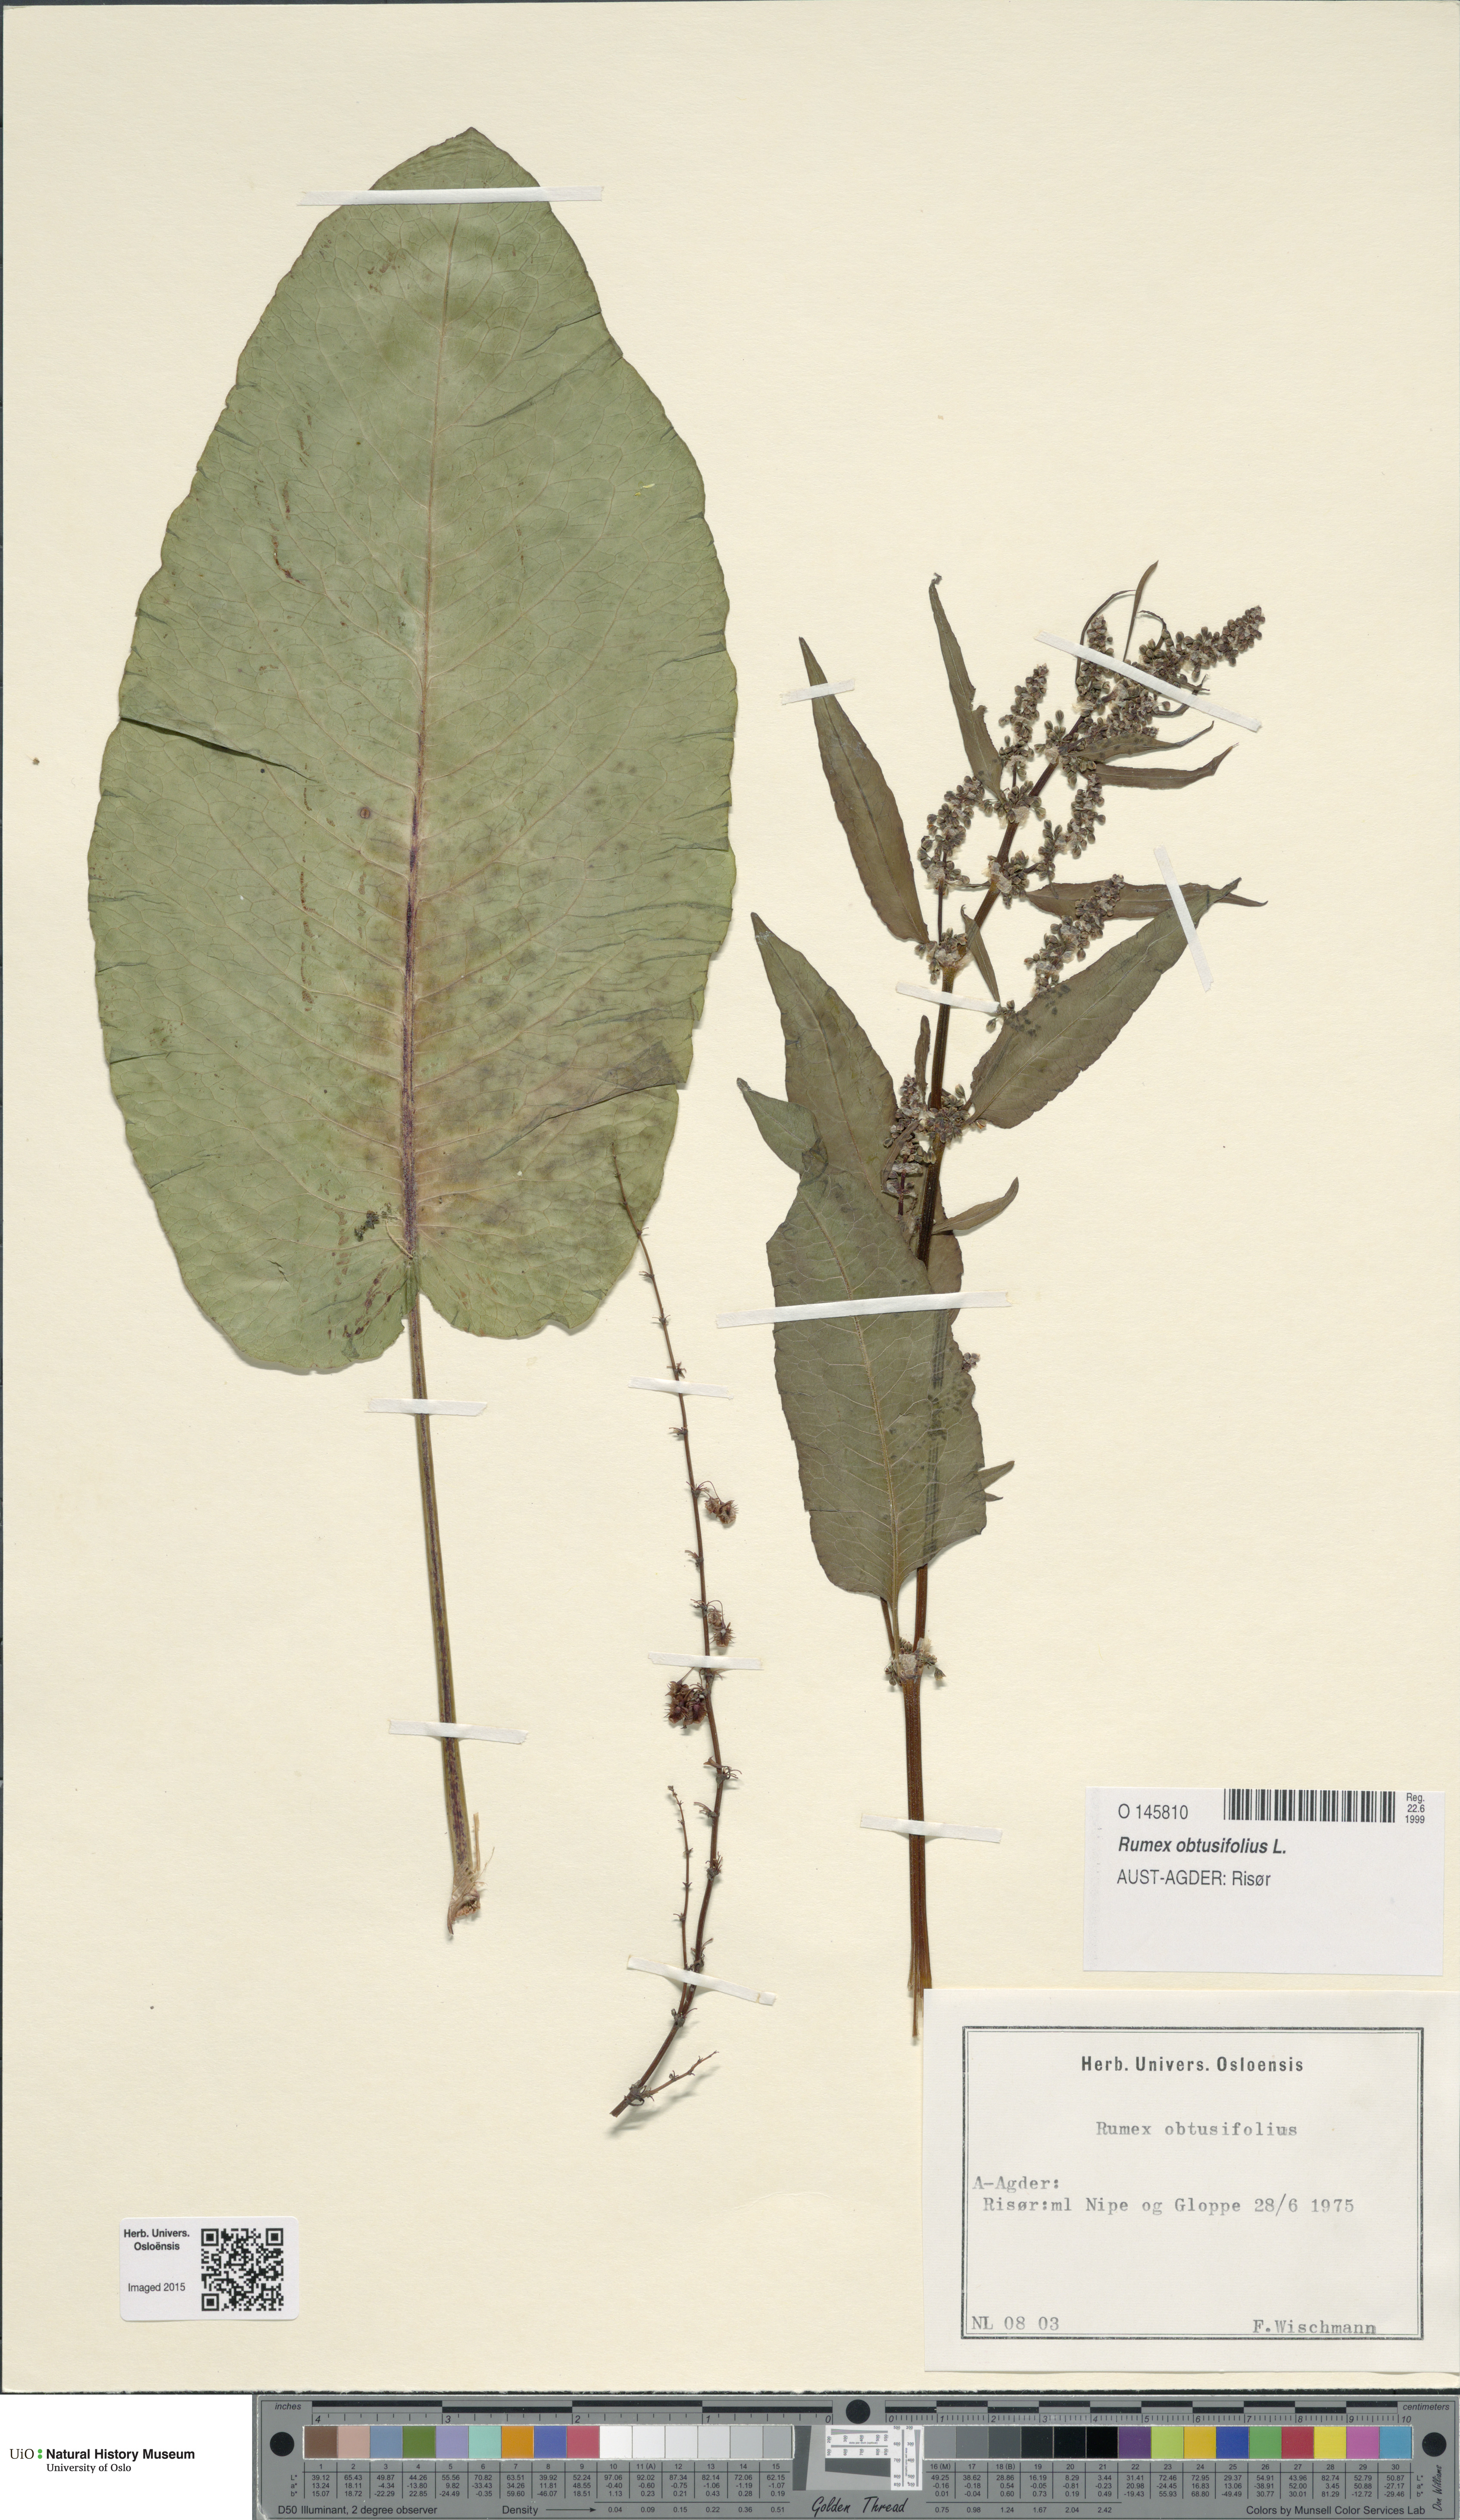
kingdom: Plantae
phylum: Tracheophyta
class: Magnoliopsida
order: Caryophyllales
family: Polygonaceae
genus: Rumex
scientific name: Rumex obtusifolius
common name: Bitter dock
